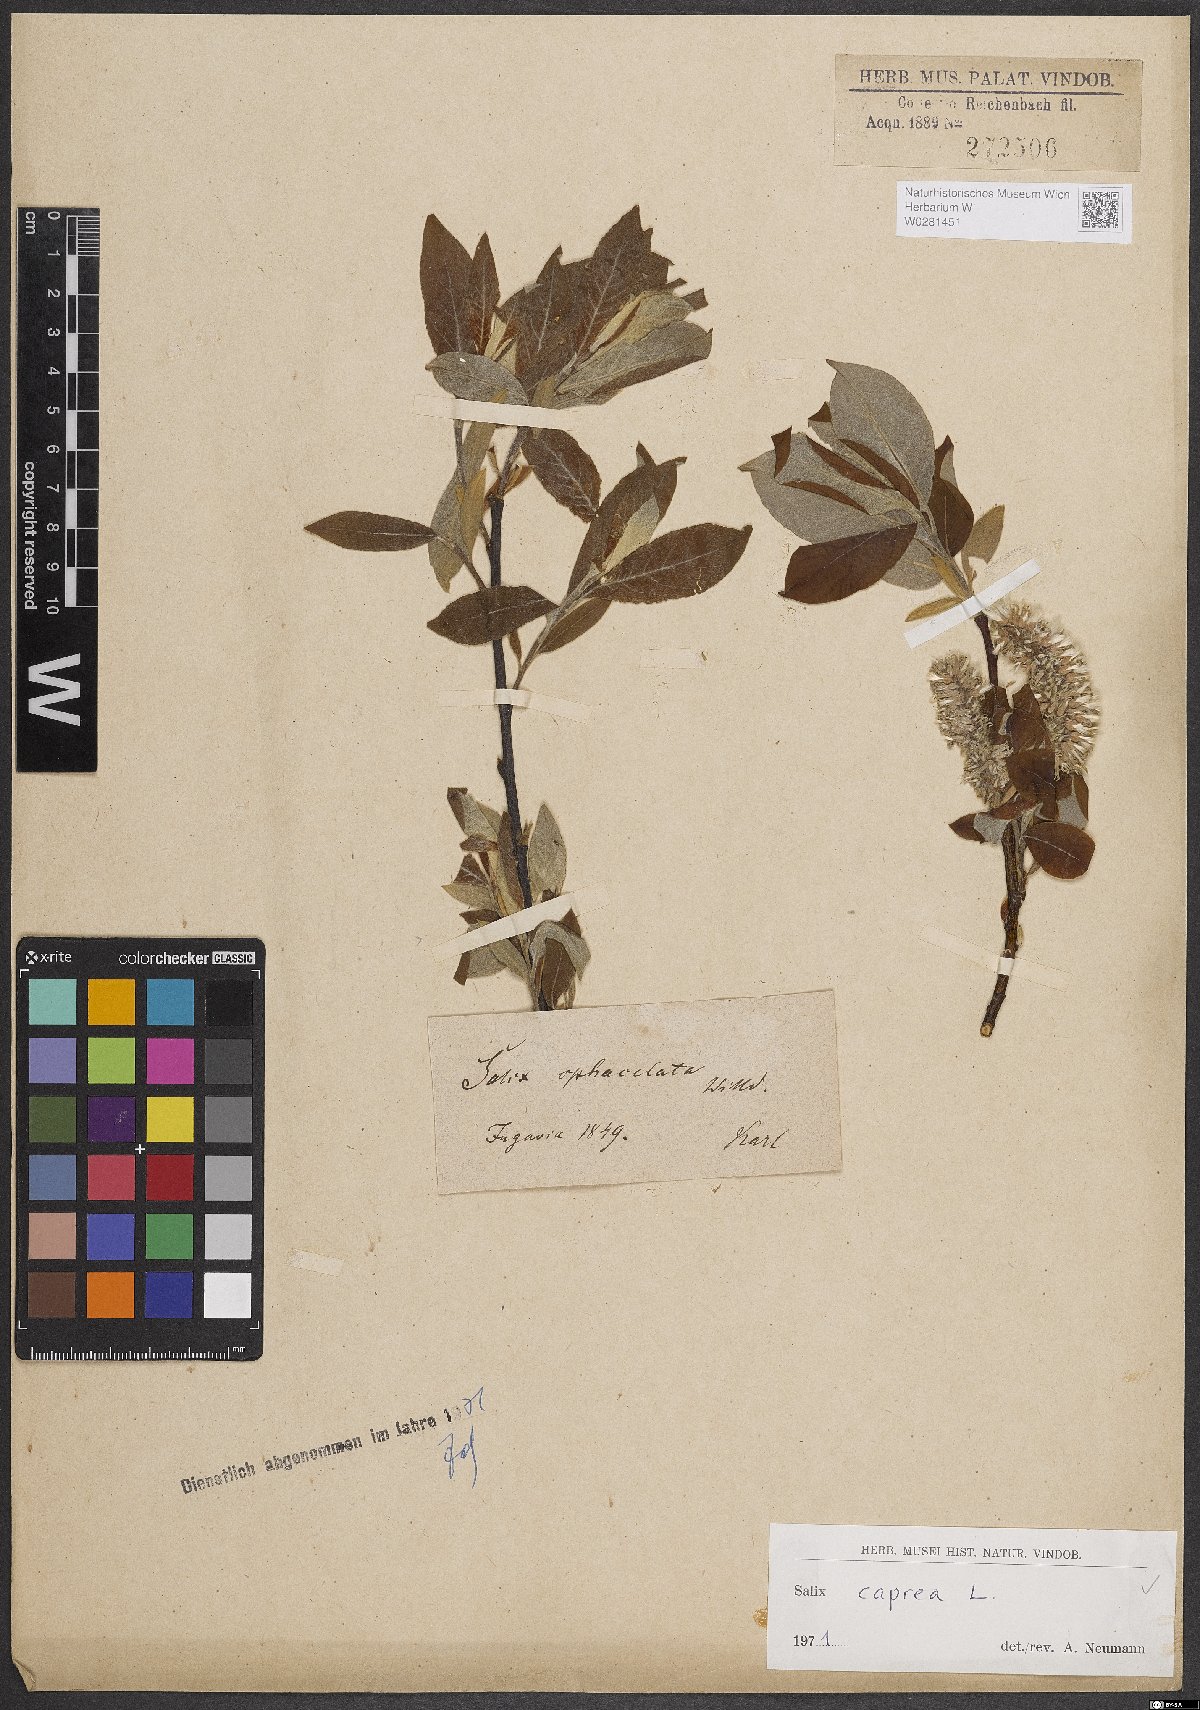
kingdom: Plantae
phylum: Tracheophyta
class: Magnoliopsida
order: Malpighiales
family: Salicaceae
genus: Salix
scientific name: Salix caprea
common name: Goat willow
